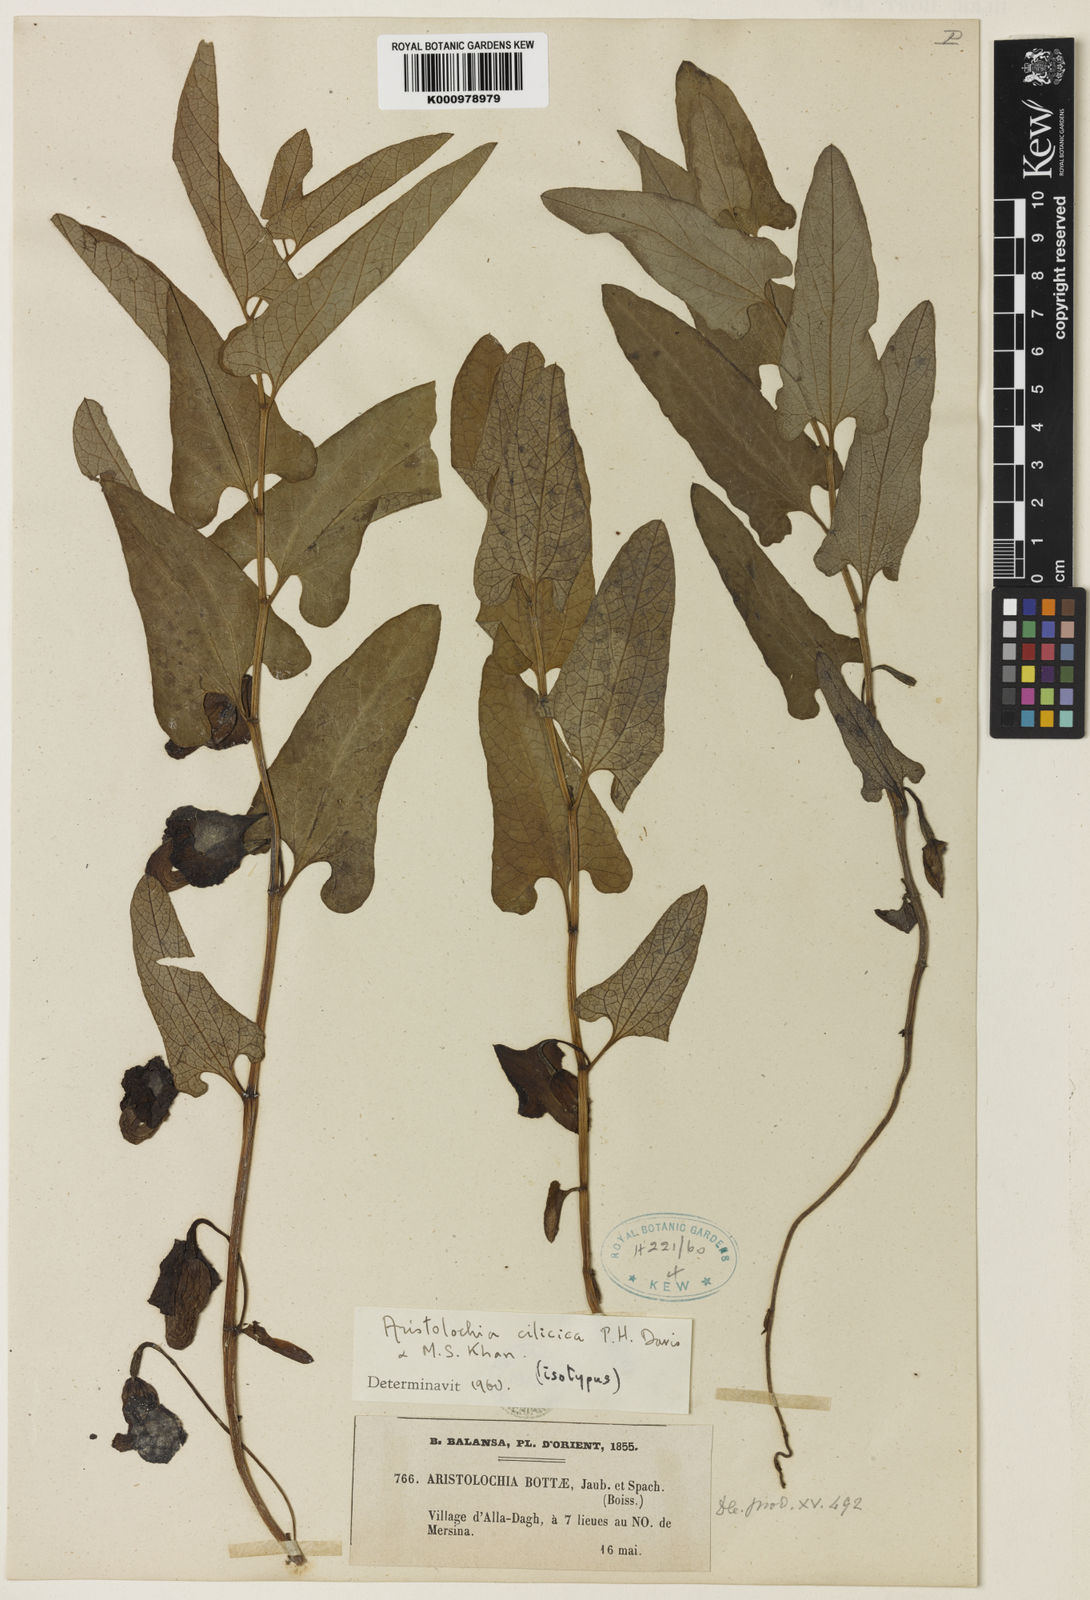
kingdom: Plantae
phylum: Tracheophyta
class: Magnoliopsida
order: Piperales
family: Aristolochiaceae
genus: Aristolochia
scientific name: Aristolochia cilicica
